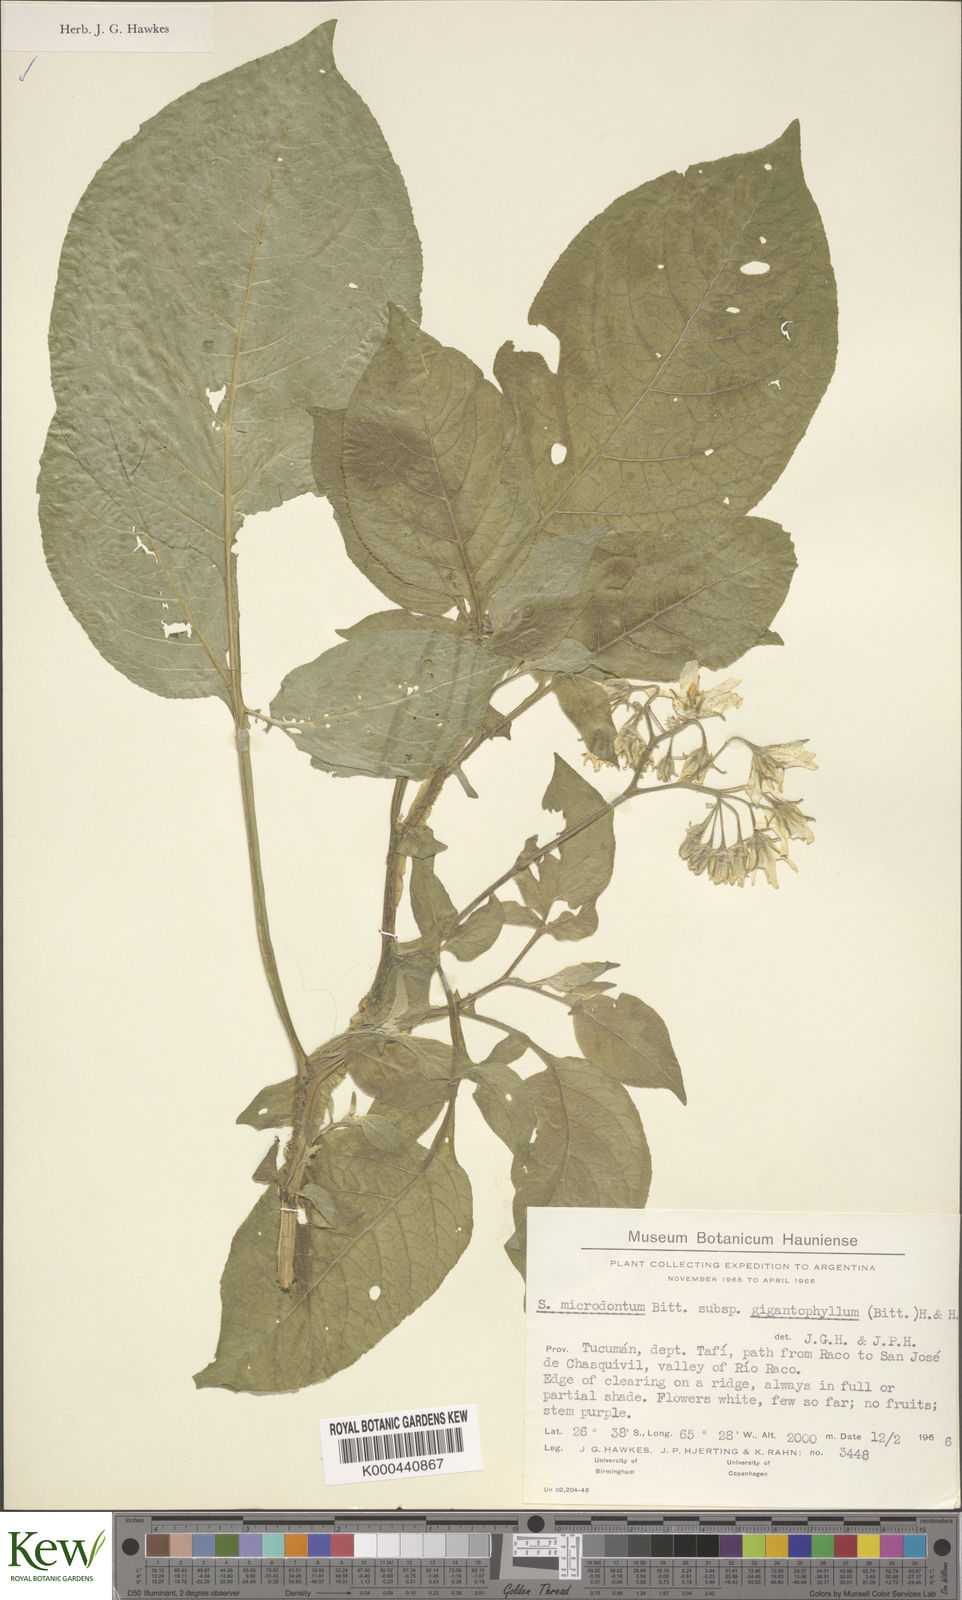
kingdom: Plantae
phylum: Tracheophyta
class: Magnoliopsida
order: Solanales
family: Solanaceae
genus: Solanum
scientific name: Solanum microdontum
